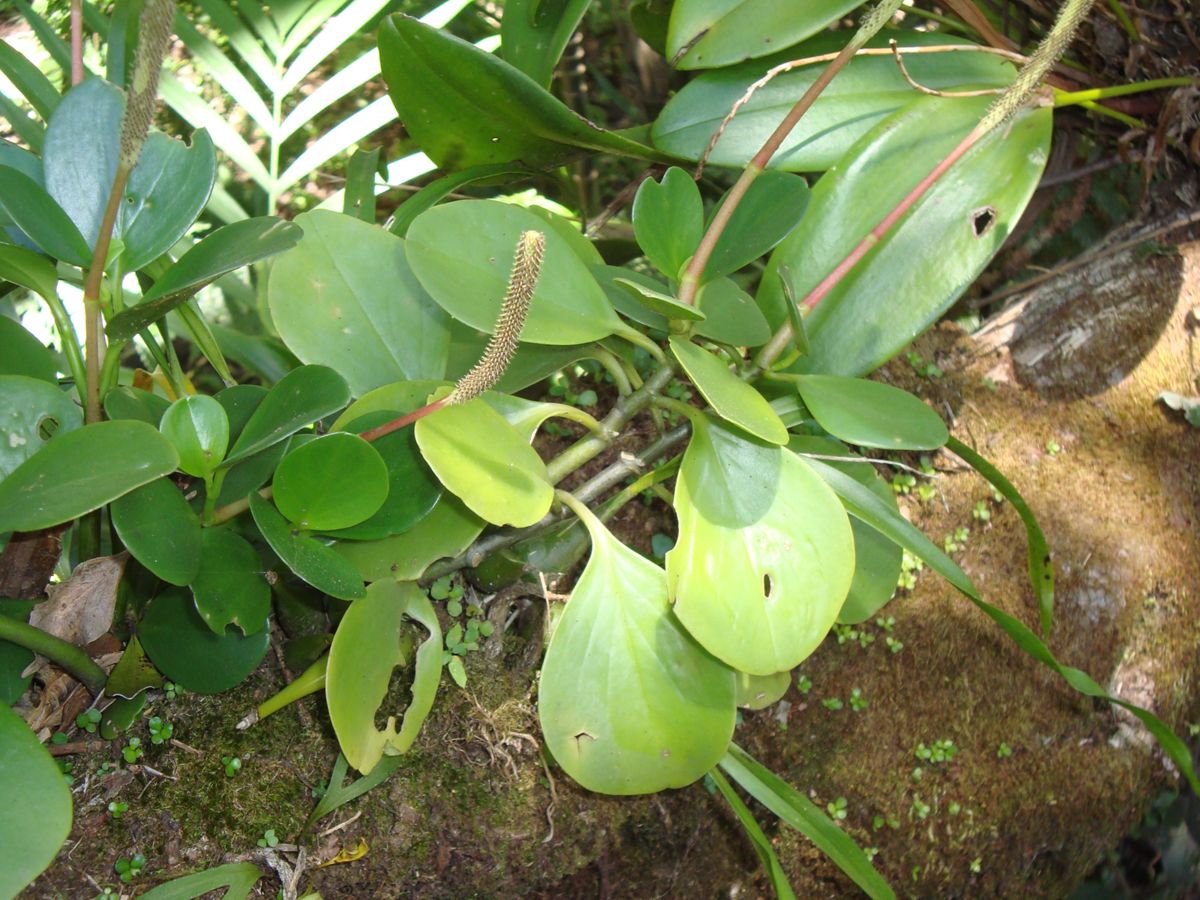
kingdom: Plantae
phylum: Tracheophyta
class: Magnoliopsida
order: Piperales
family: Piperaceae
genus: Peperomia
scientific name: Peperomia
